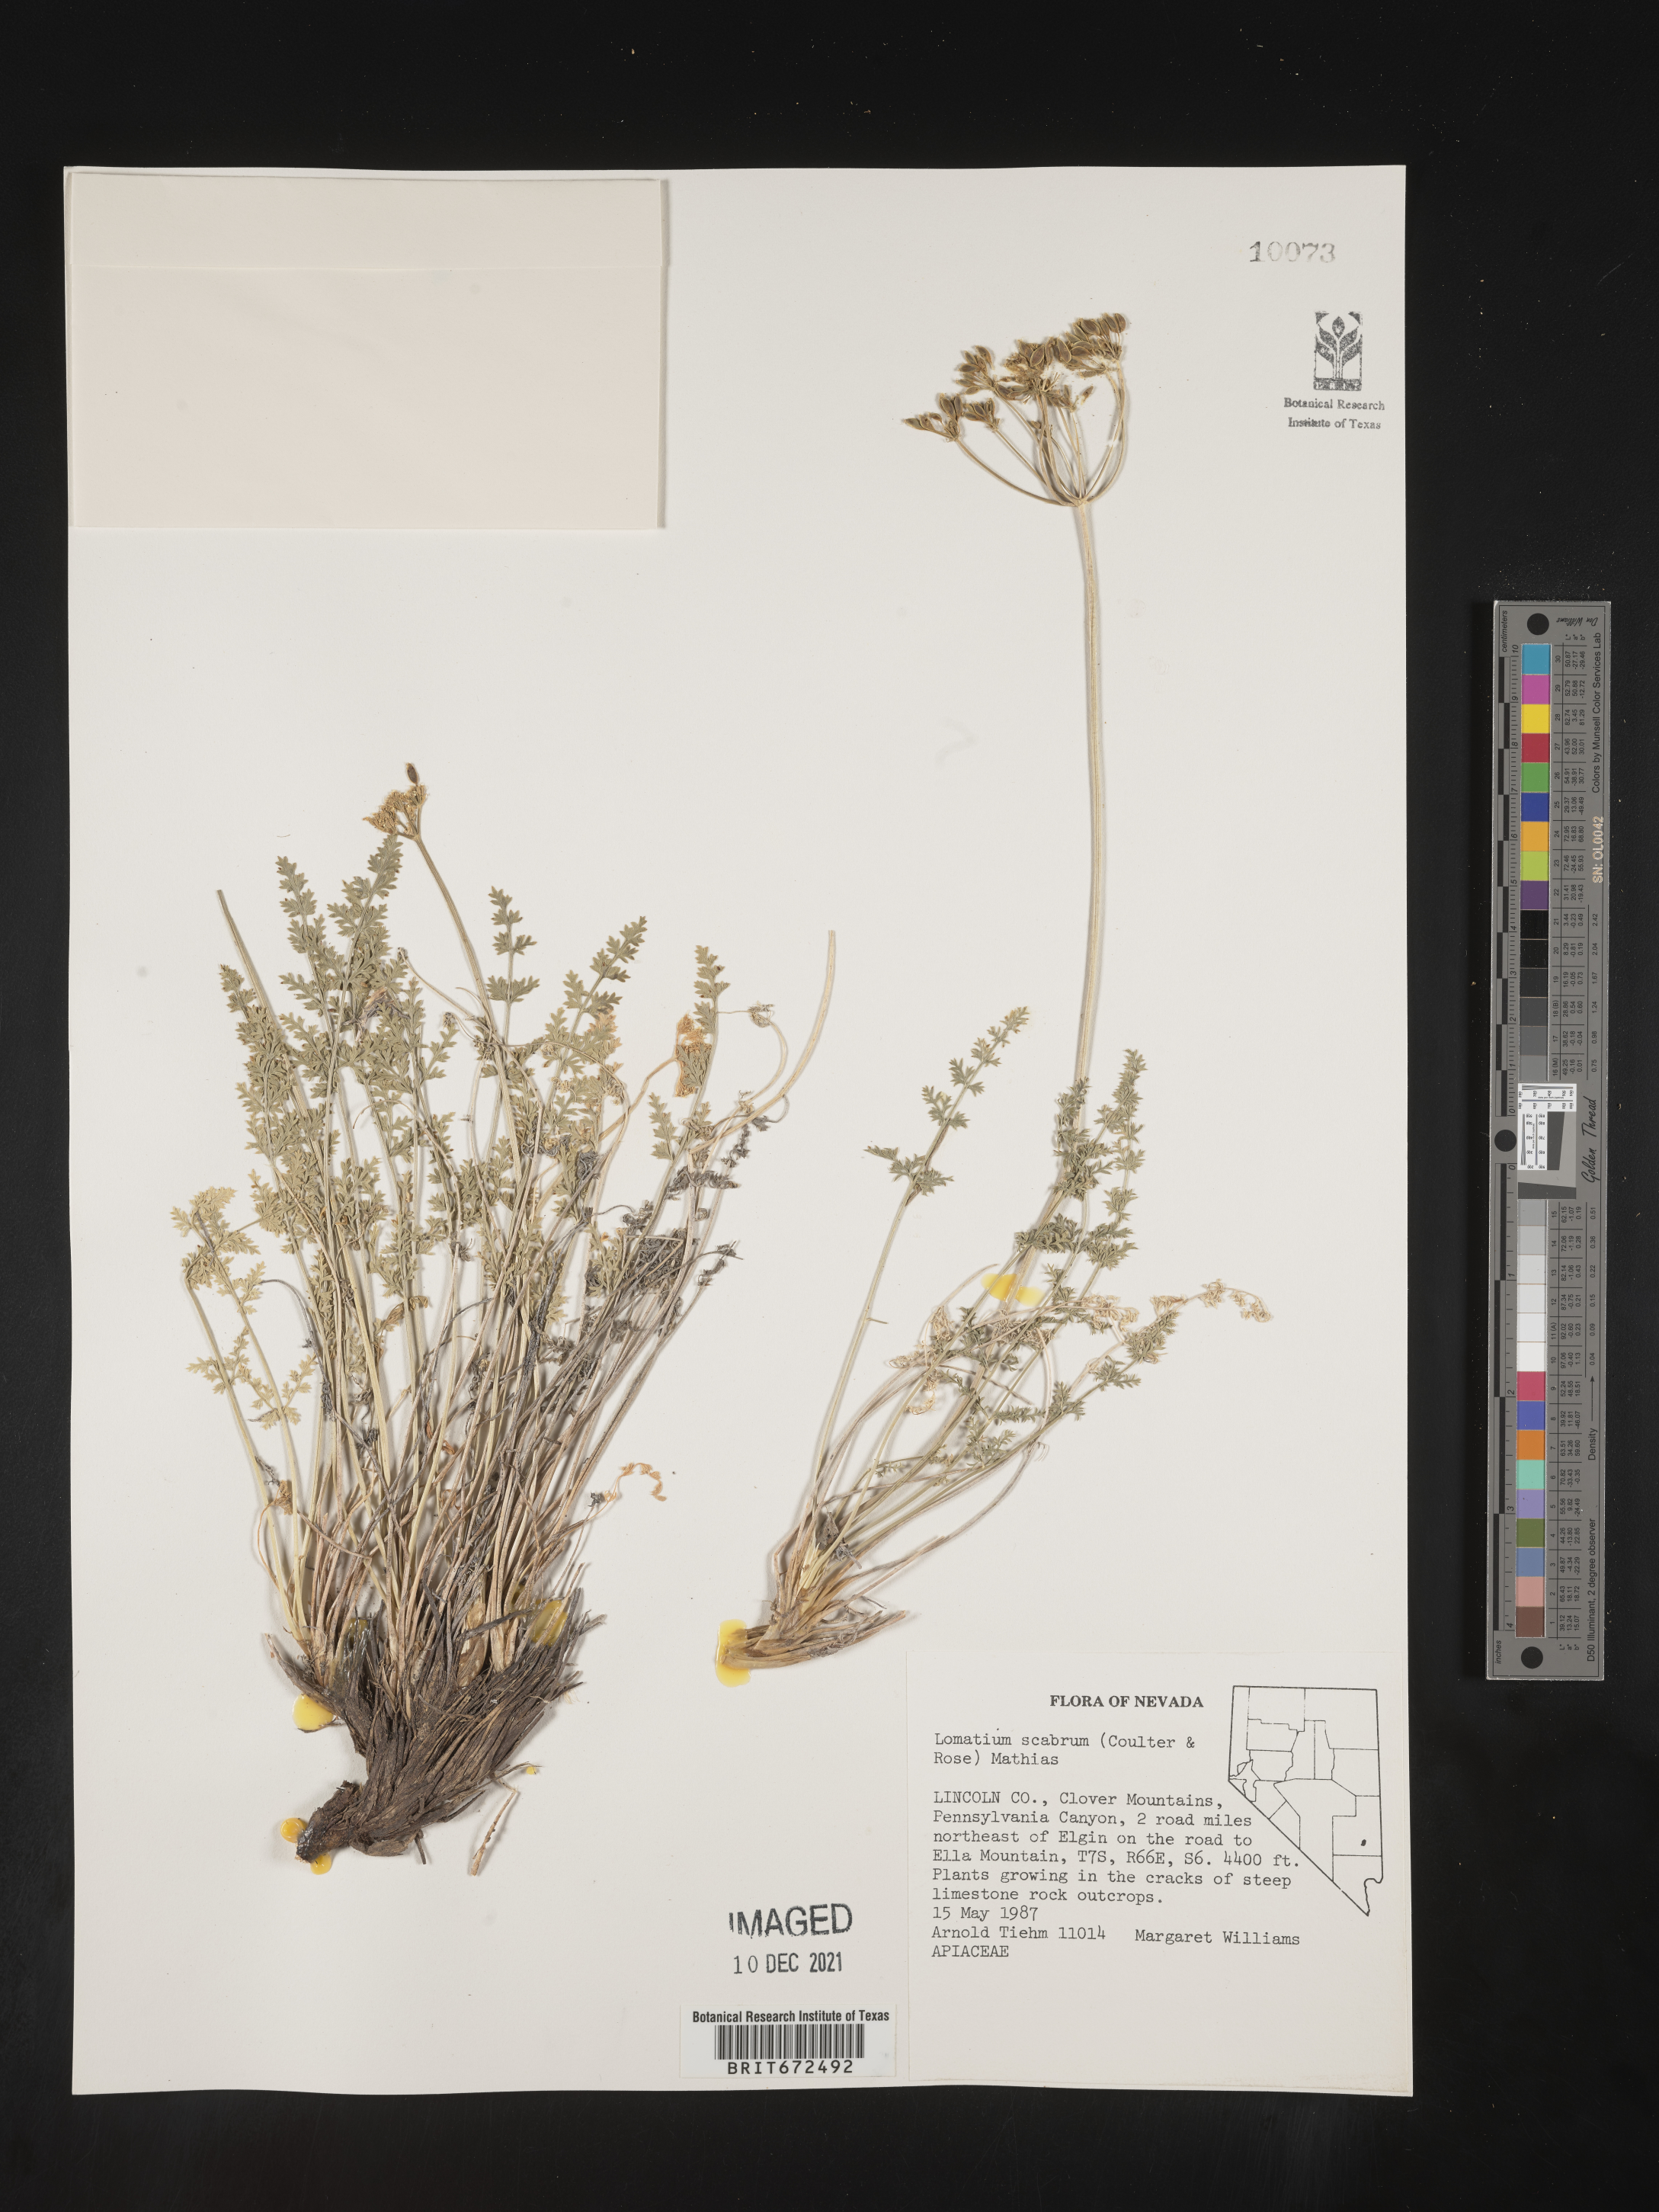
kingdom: Plantae
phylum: Tracheophyta
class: Magnoliopsida
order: Apiales
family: Apiaceae
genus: Lomatium
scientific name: Lomatium scabrum
